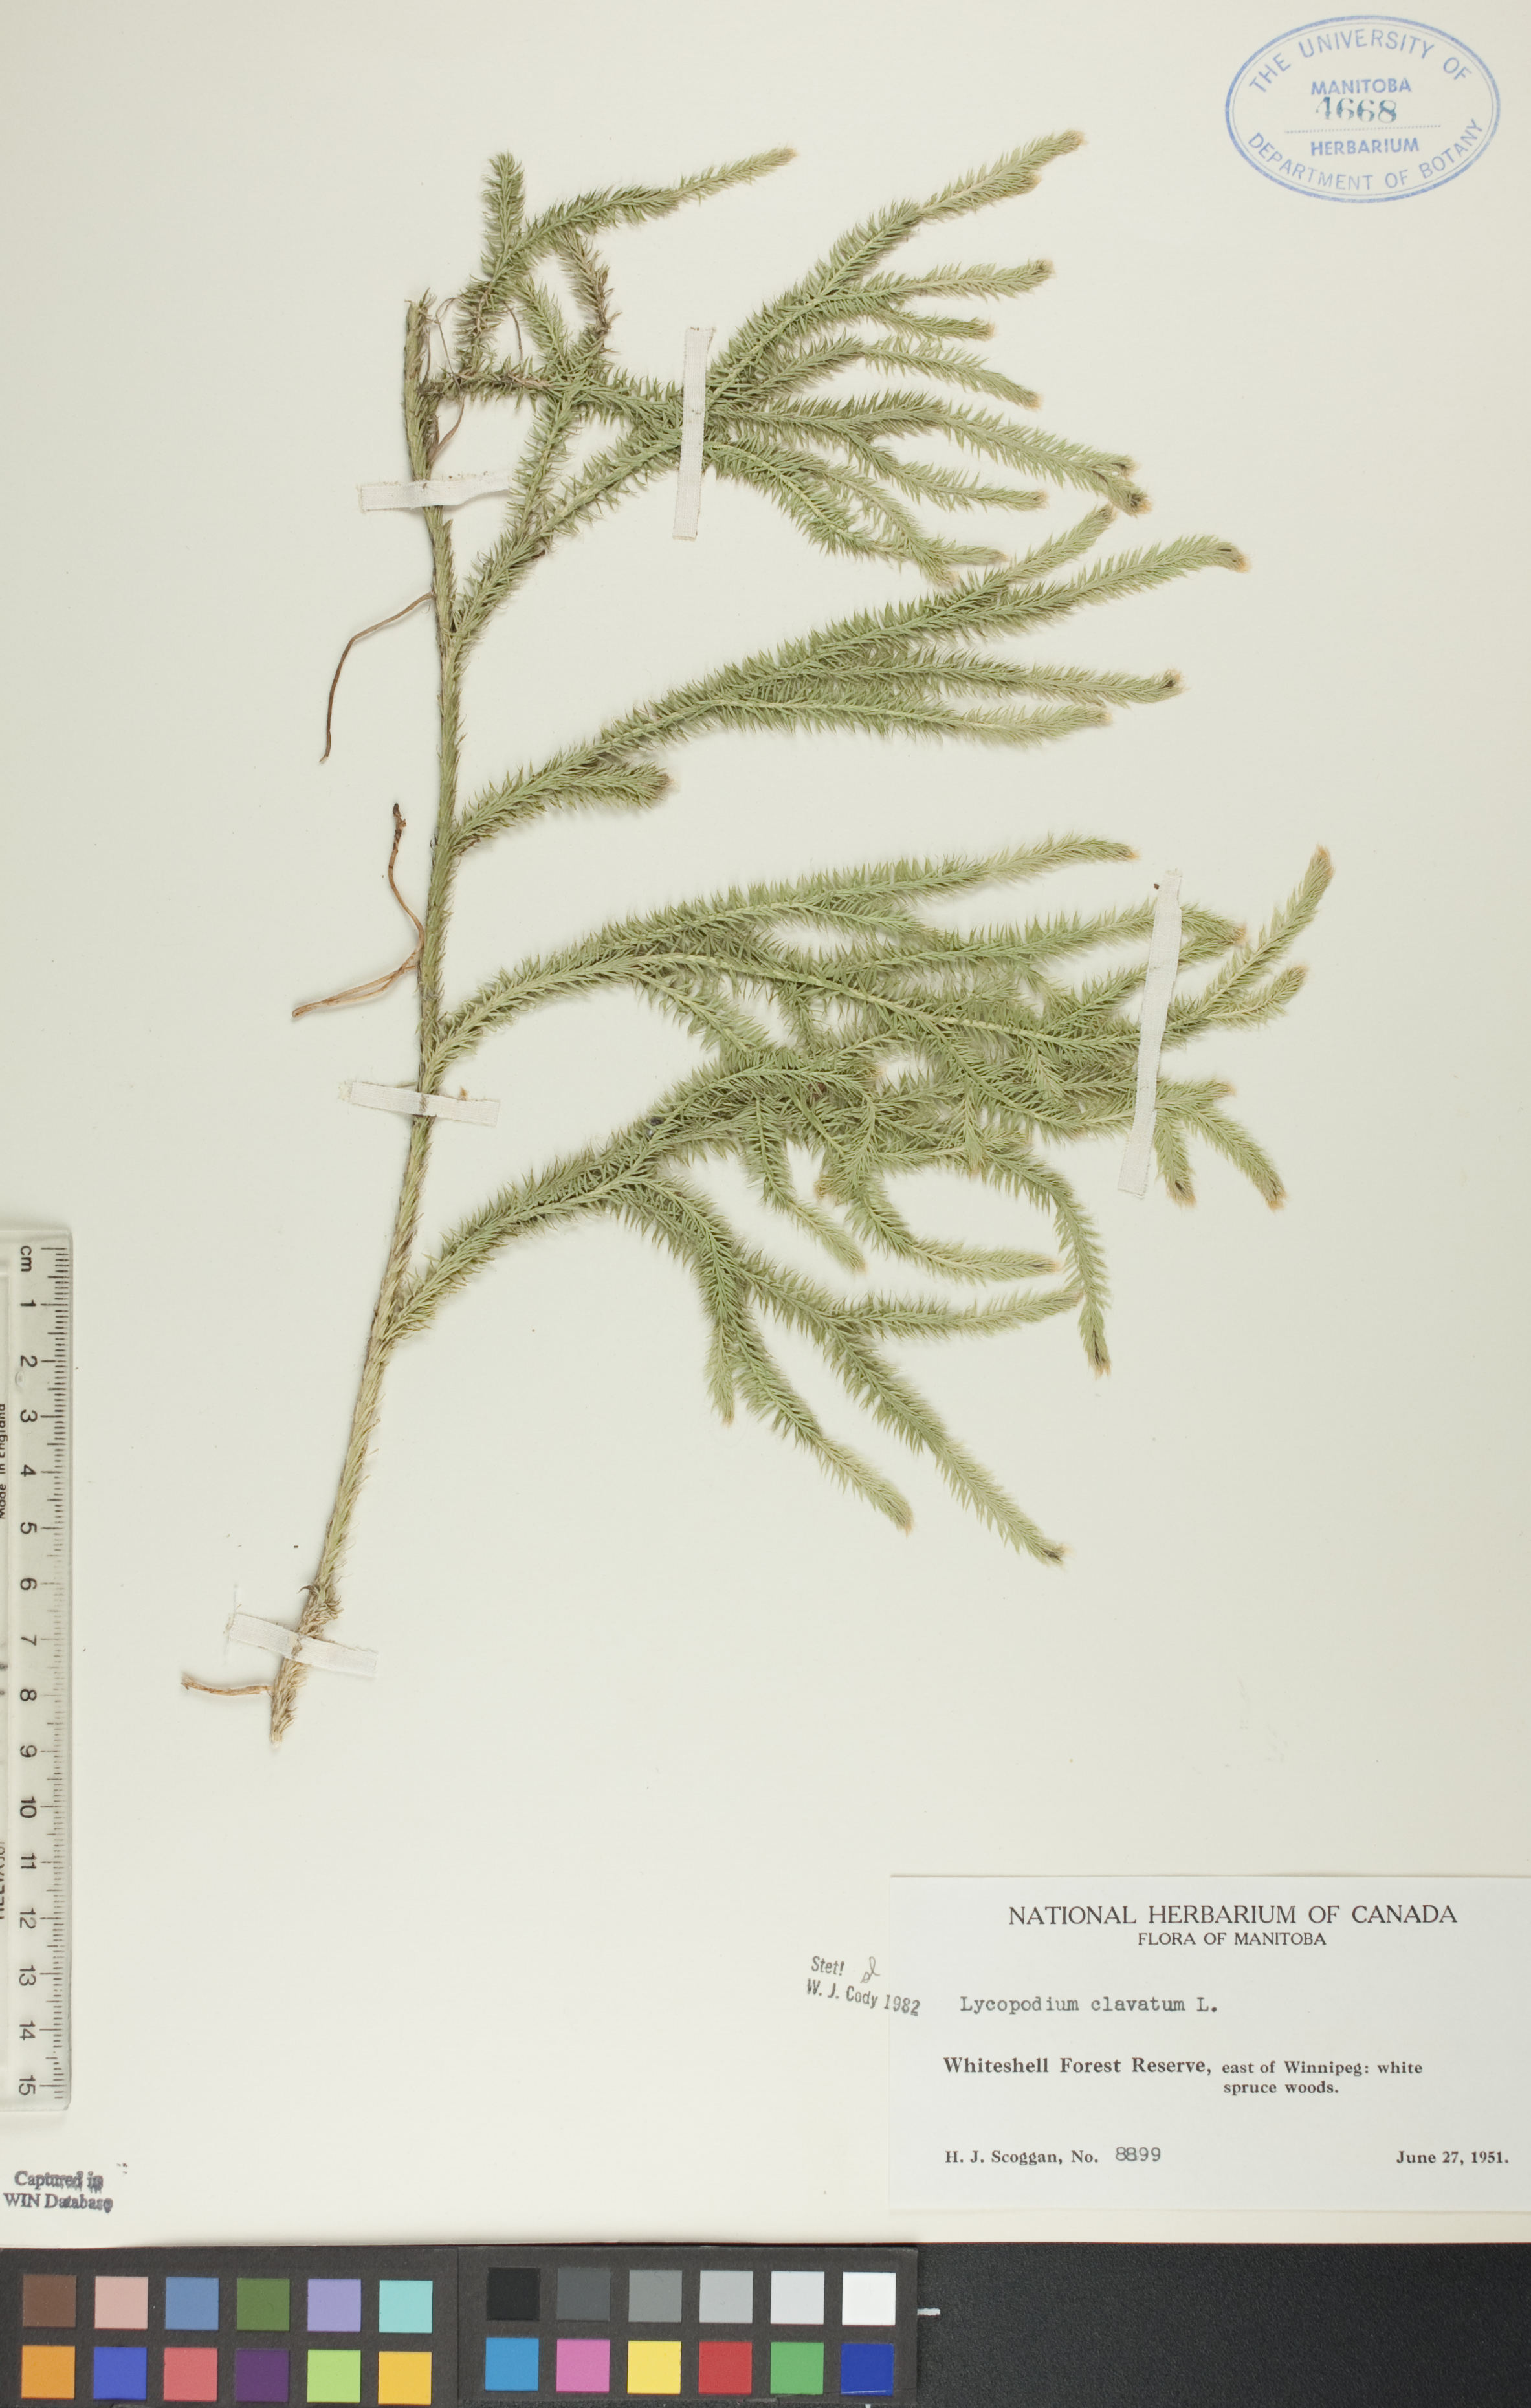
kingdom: Plantae
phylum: Tracheophyta
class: Lycopodiopsida
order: Lycopodiales
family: Lycopodiaceae
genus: Lycopodium
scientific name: Lycopodium clavatum
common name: Stag's-horn clubmoss
